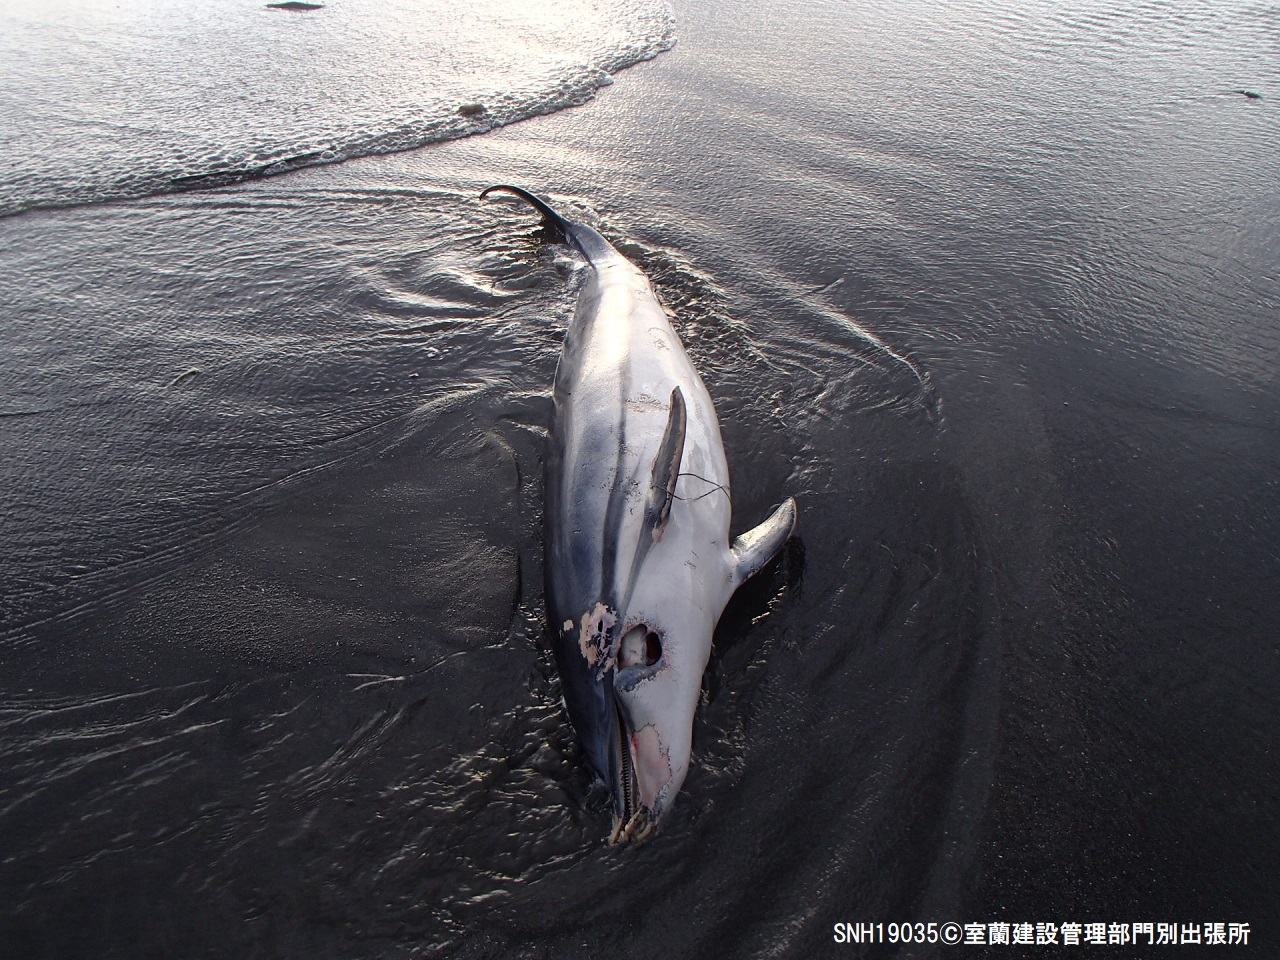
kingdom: Animalia
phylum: Chordata
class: Mammalia
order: Cetacea
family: Delphinidae
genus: Stenella
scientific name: Stenella coeruleoalba
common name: Striped dolphin
